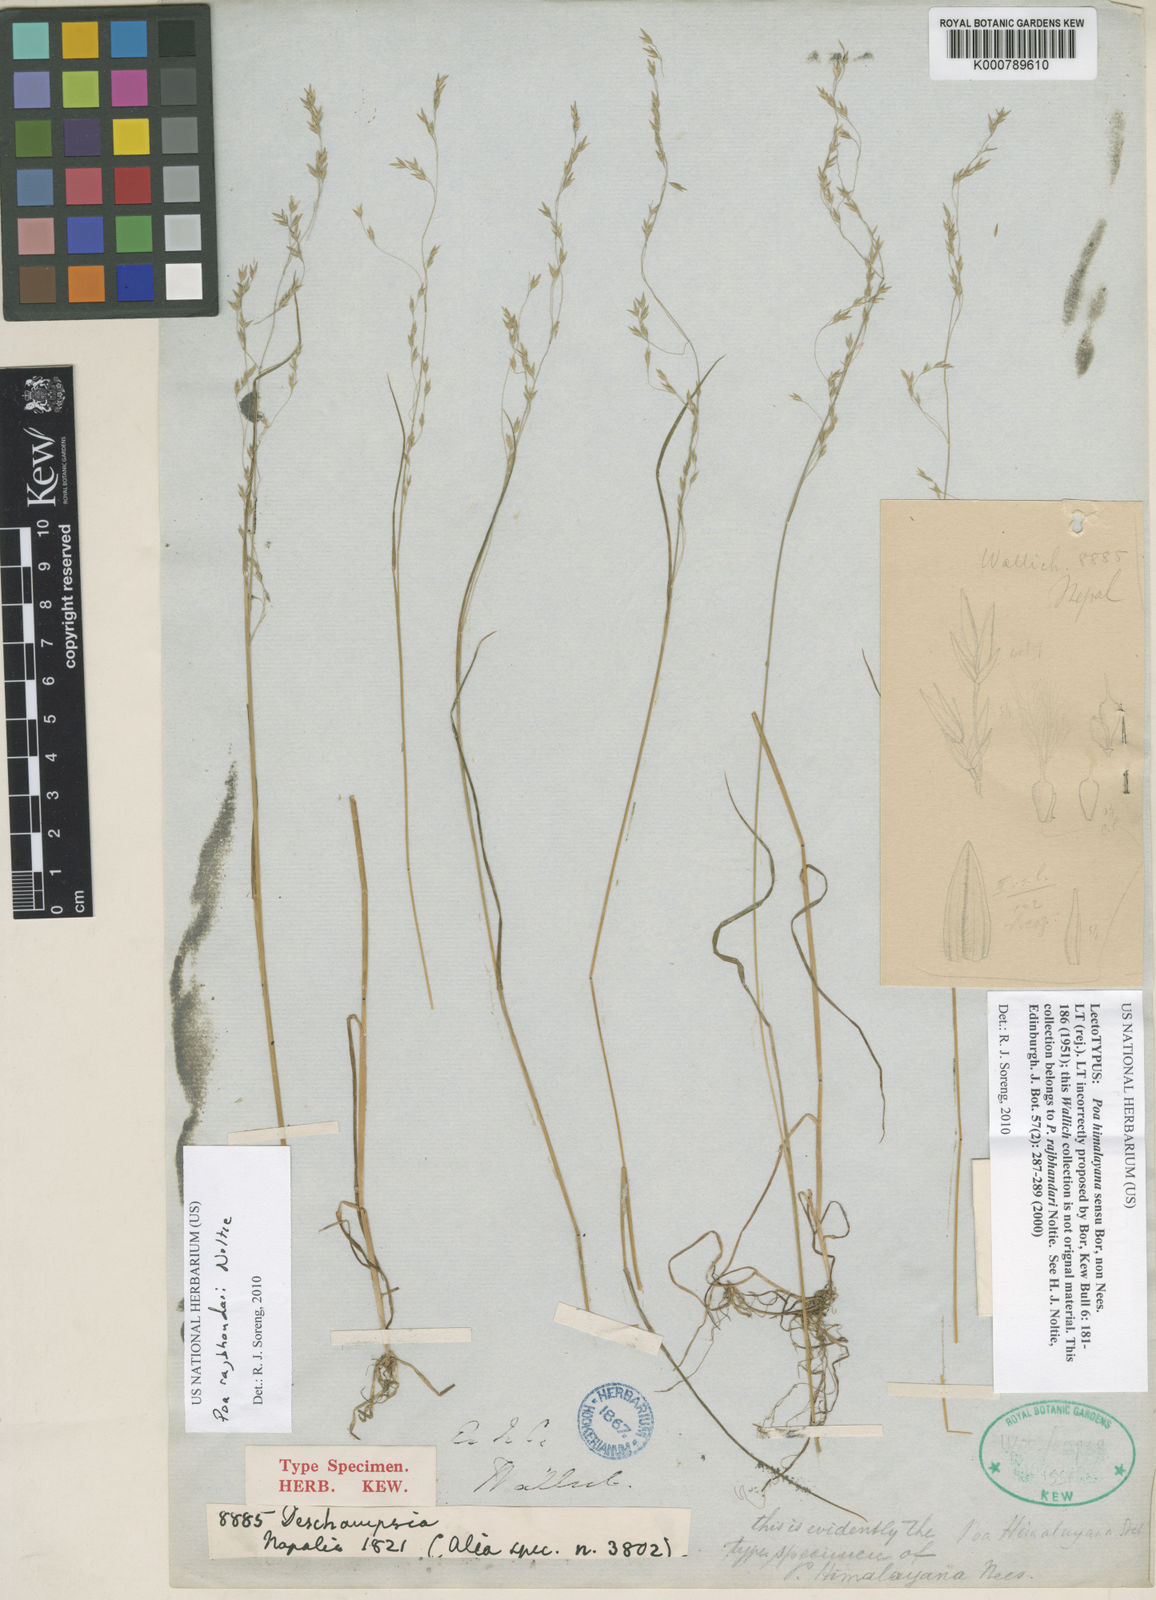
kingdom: Plantae
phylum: Tracheophyta
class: Liliopsida
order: Poales
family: Poaceae
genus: Poa
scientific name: Poa rajbhandarii
